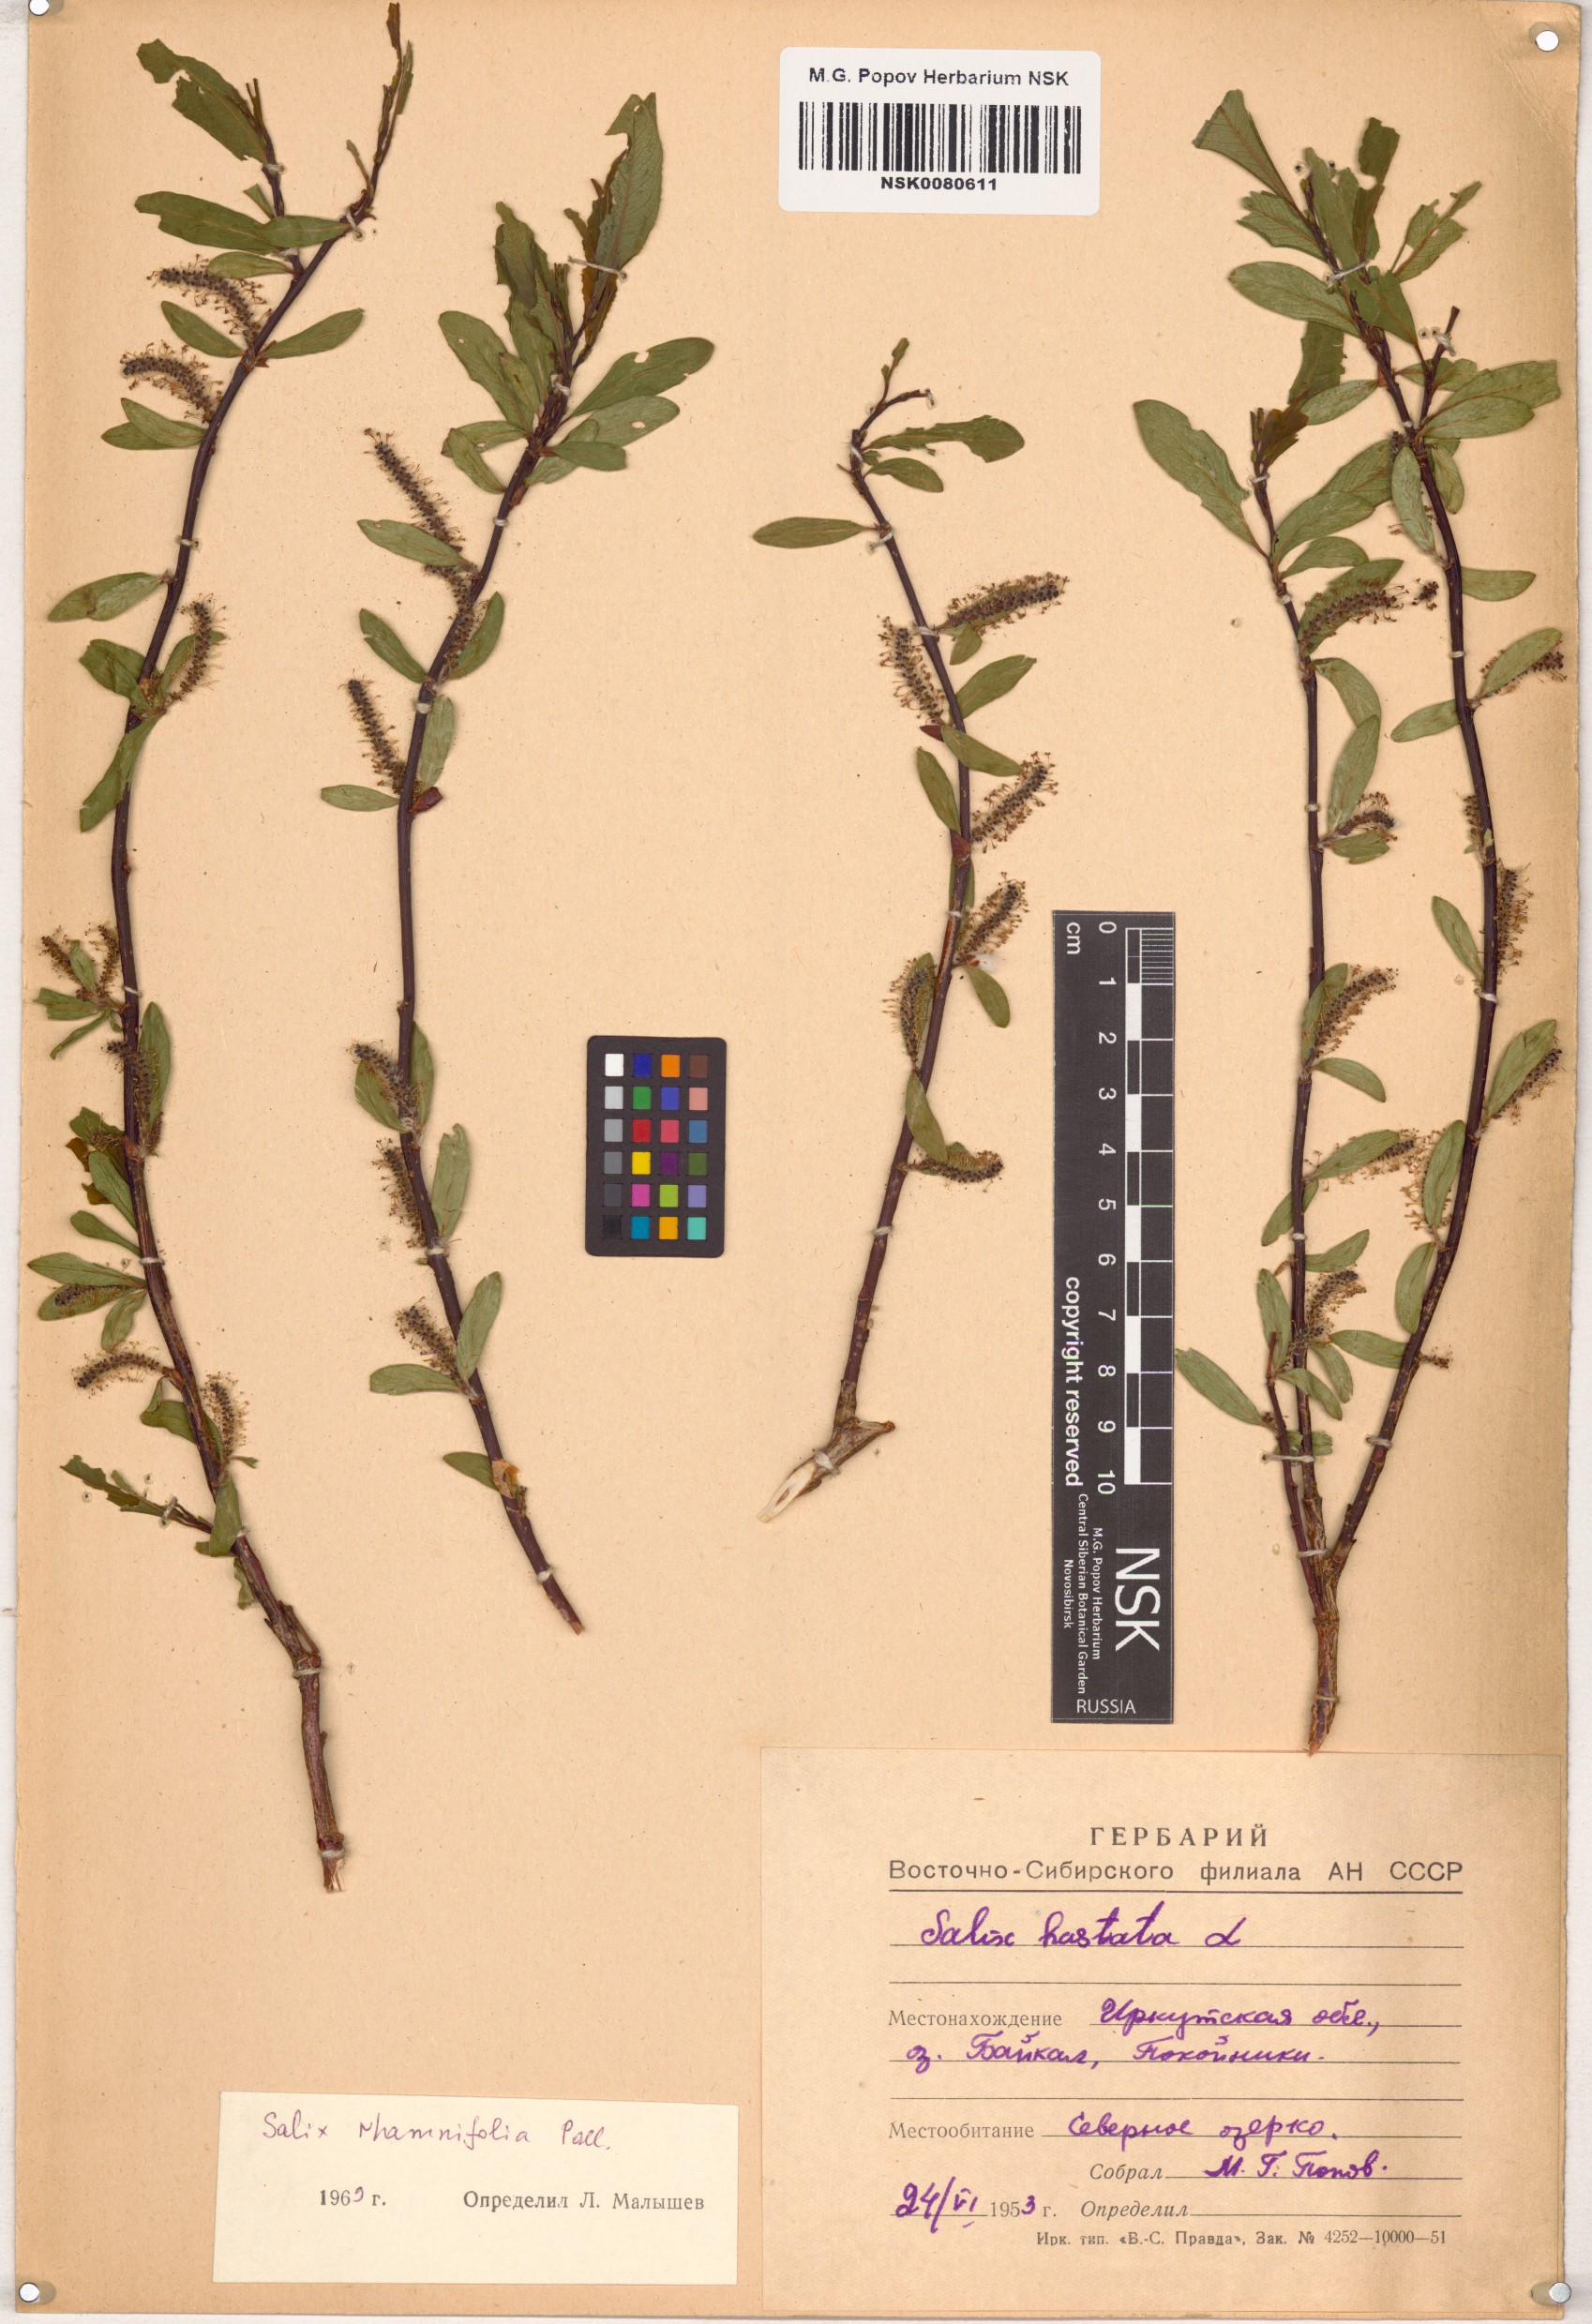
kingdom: Plantae
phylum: Tracheophyta
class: Magnoliopsida
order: Malpighiales
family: Salicaceae
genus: Salix
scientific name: Salix rhamnifolia
